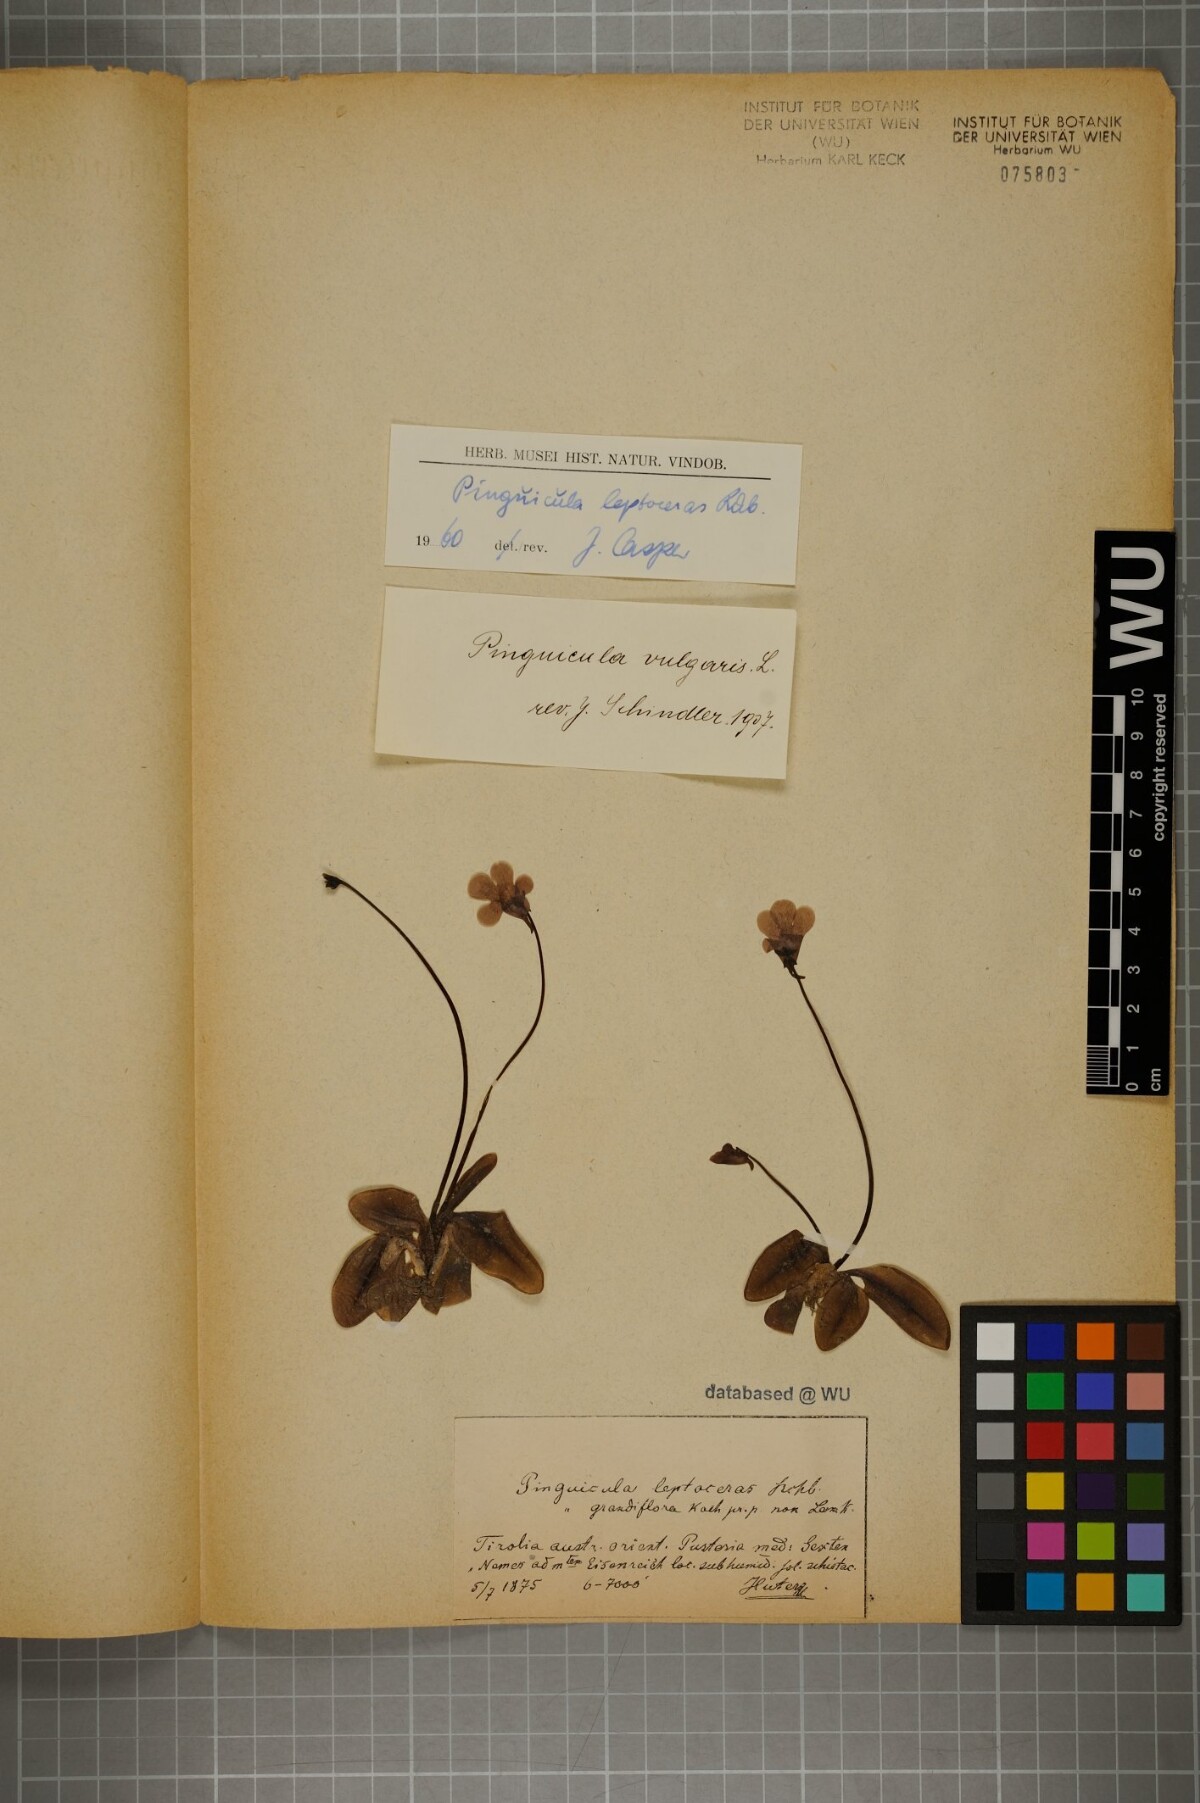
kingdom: Plantae
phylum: Tracheophyta
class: Magnoliopsida
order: Lamiales
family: Lentibulariaceae
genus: Pinguicula
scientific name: Pinguicula leptoceras
